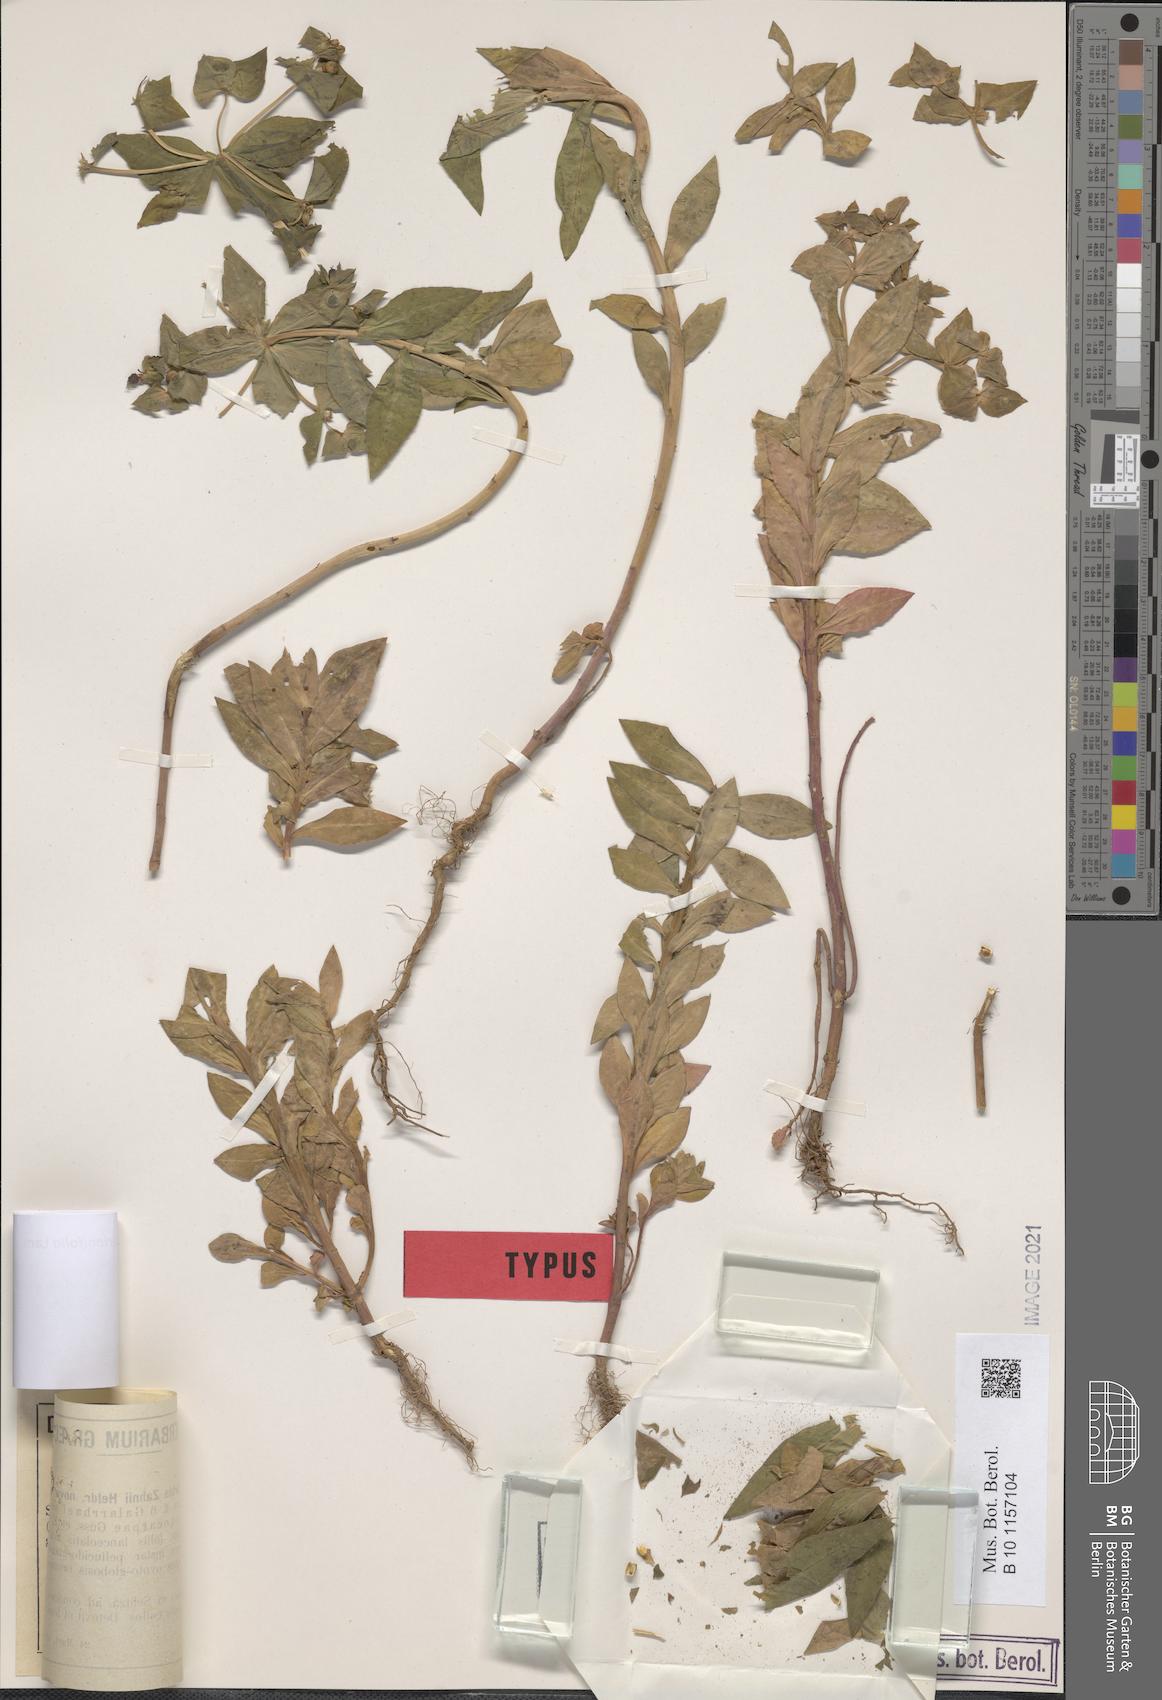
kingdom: Plantae
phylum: Tracheophyta
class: Magnoliopsida
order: Malpighiales
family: Euphorbiaceae
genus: Euphorbia
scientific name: Euphorbia valerianifolia
